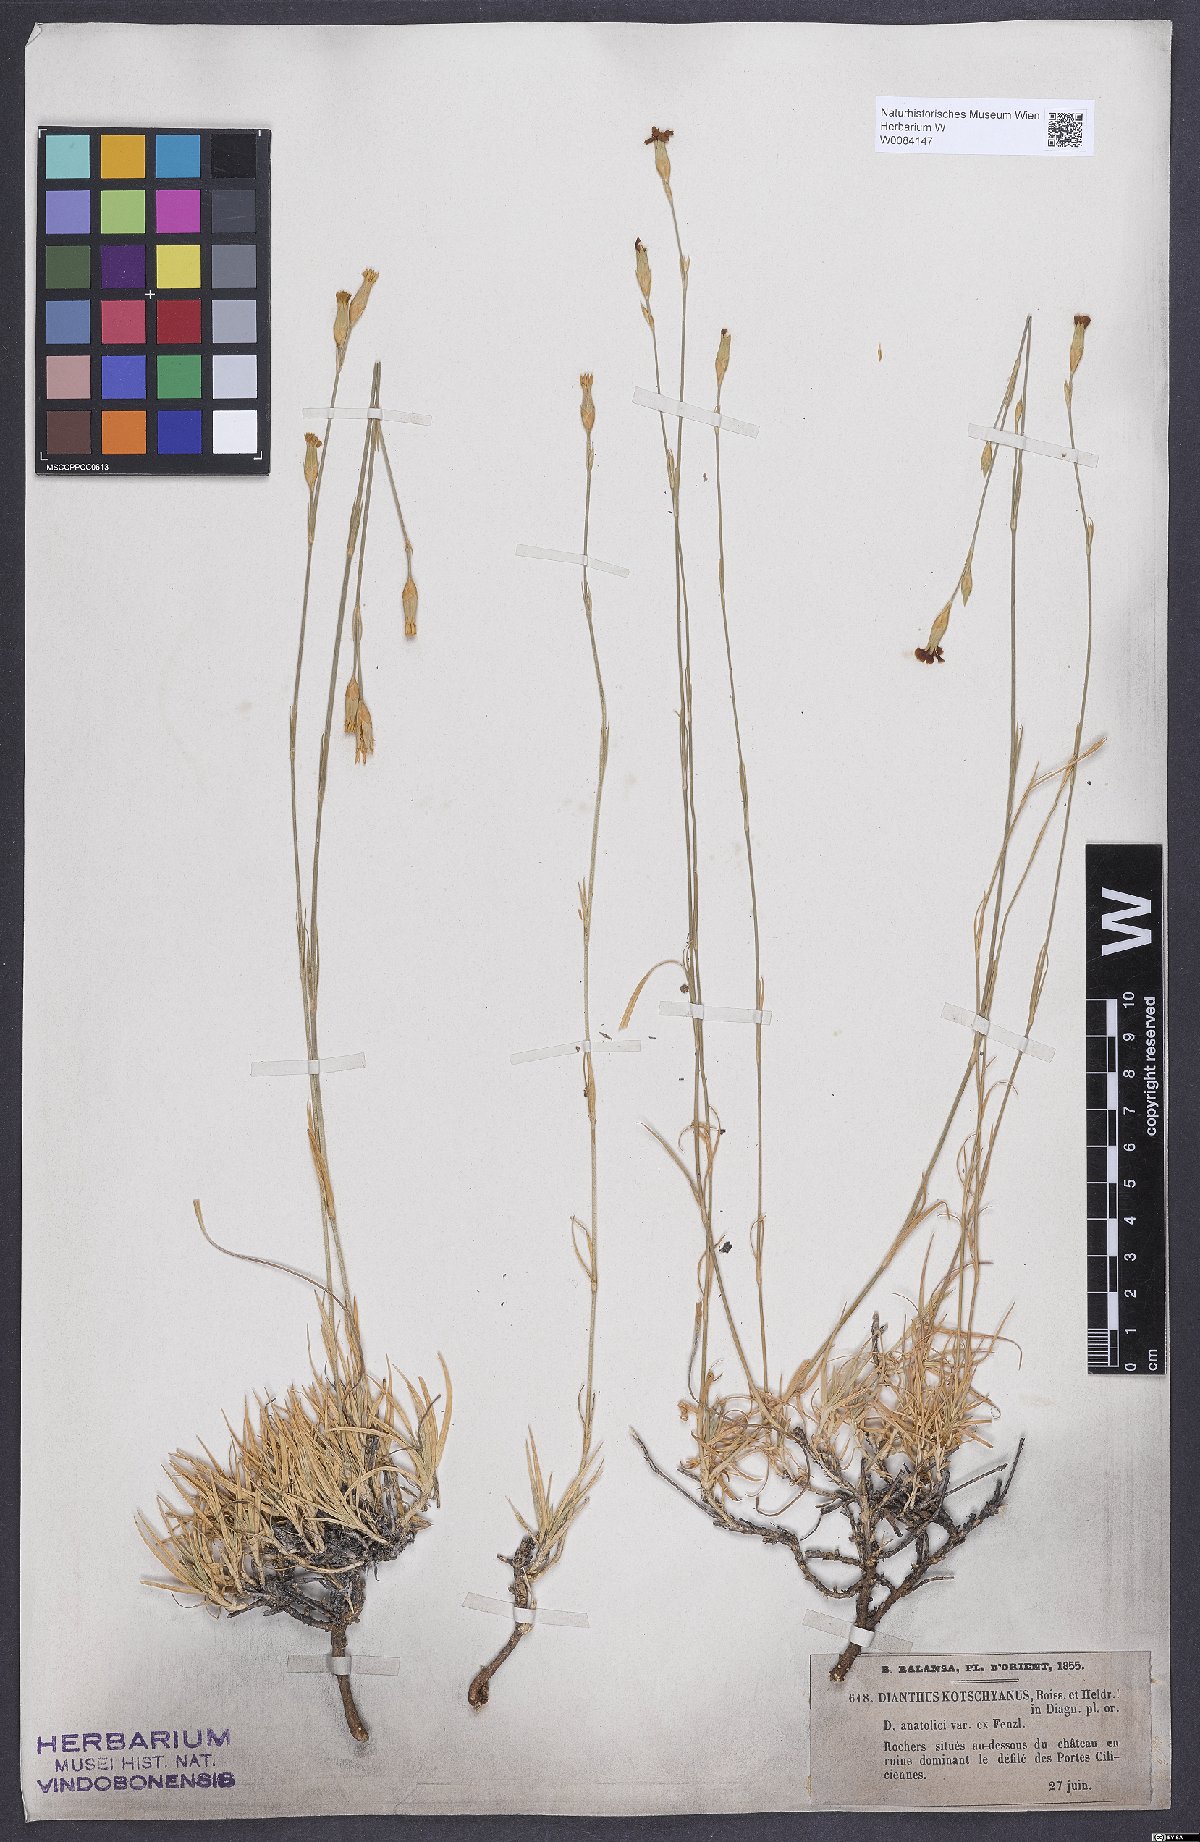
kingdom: Plantae
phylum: Tracheophyta
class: Magnoliopsida
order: Caryophyllales
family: Caryophyllaceae
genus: Dianthus
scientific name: Dianthus anatolicus
